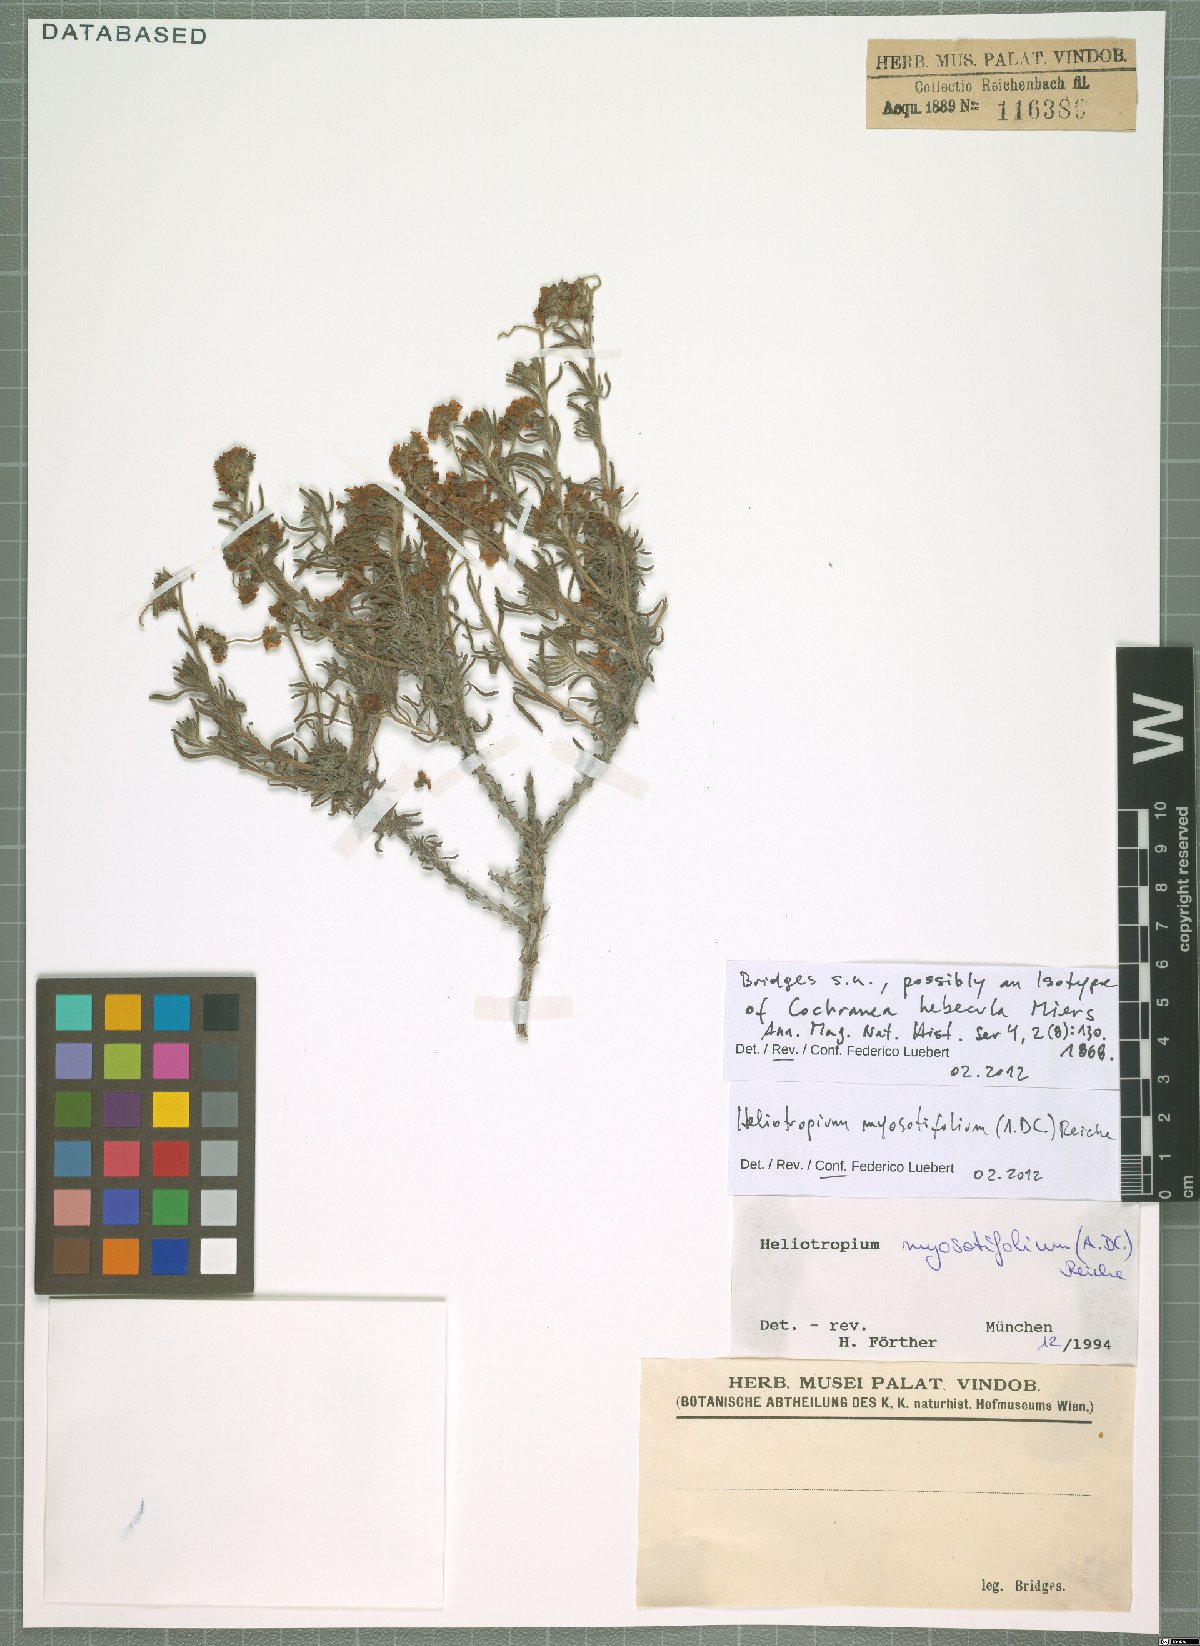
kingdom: Plantae
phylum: Tracheophyta
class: Magnoliopsida
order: Boraginales
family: Heliotropiaceae
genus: Heliotropium
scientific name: Heliotropium myosotifolium
